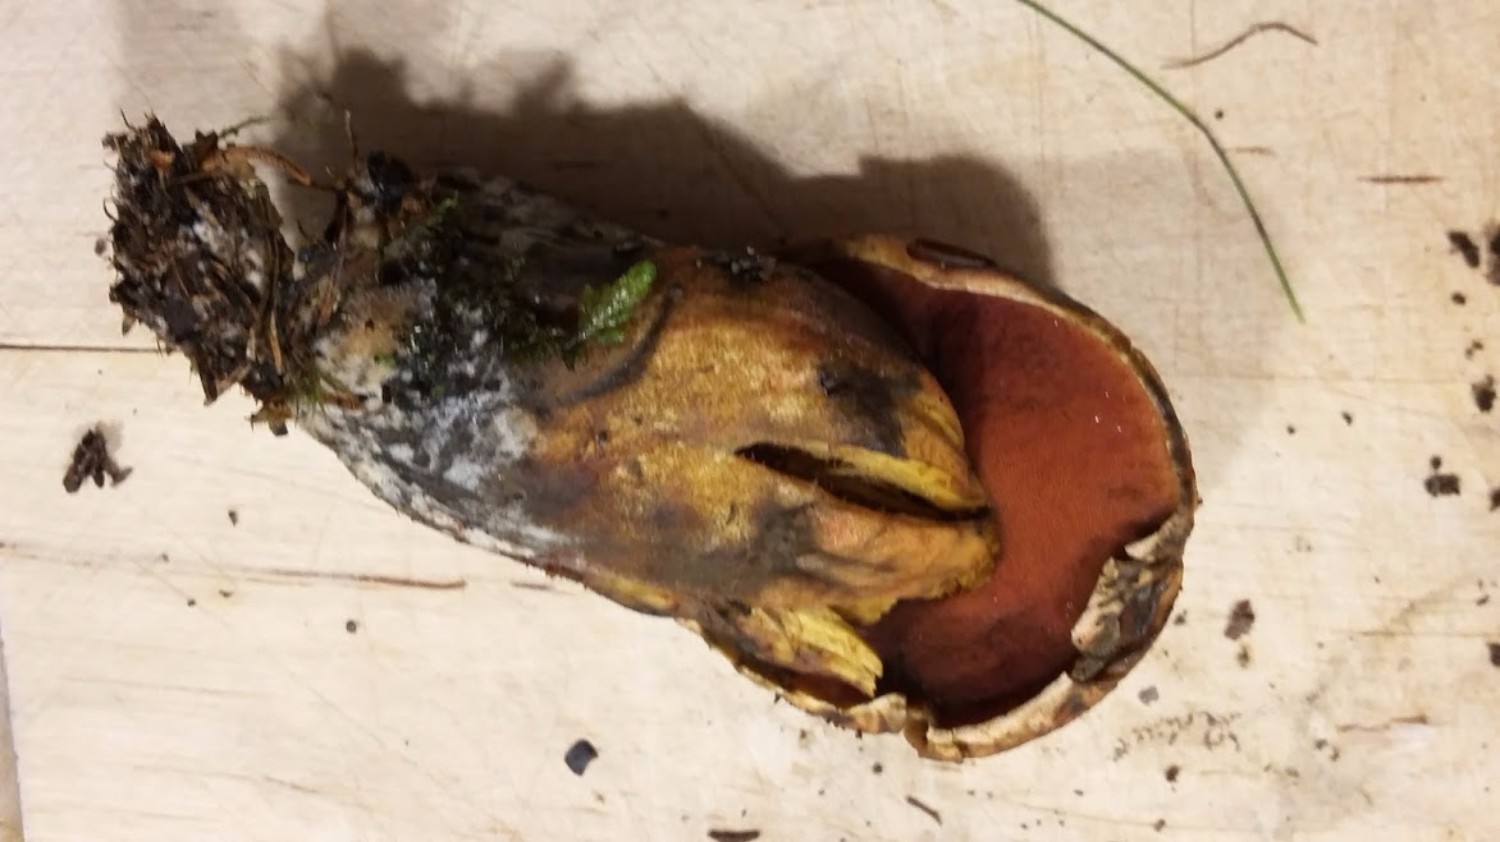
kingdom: Fungi
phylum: Basidiomycota
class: Agaricomycetes
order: Boletales
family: Boletaceae
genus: Neoboletus
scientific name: Neoboletus erythropus
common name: punktstokket indigorørhat
